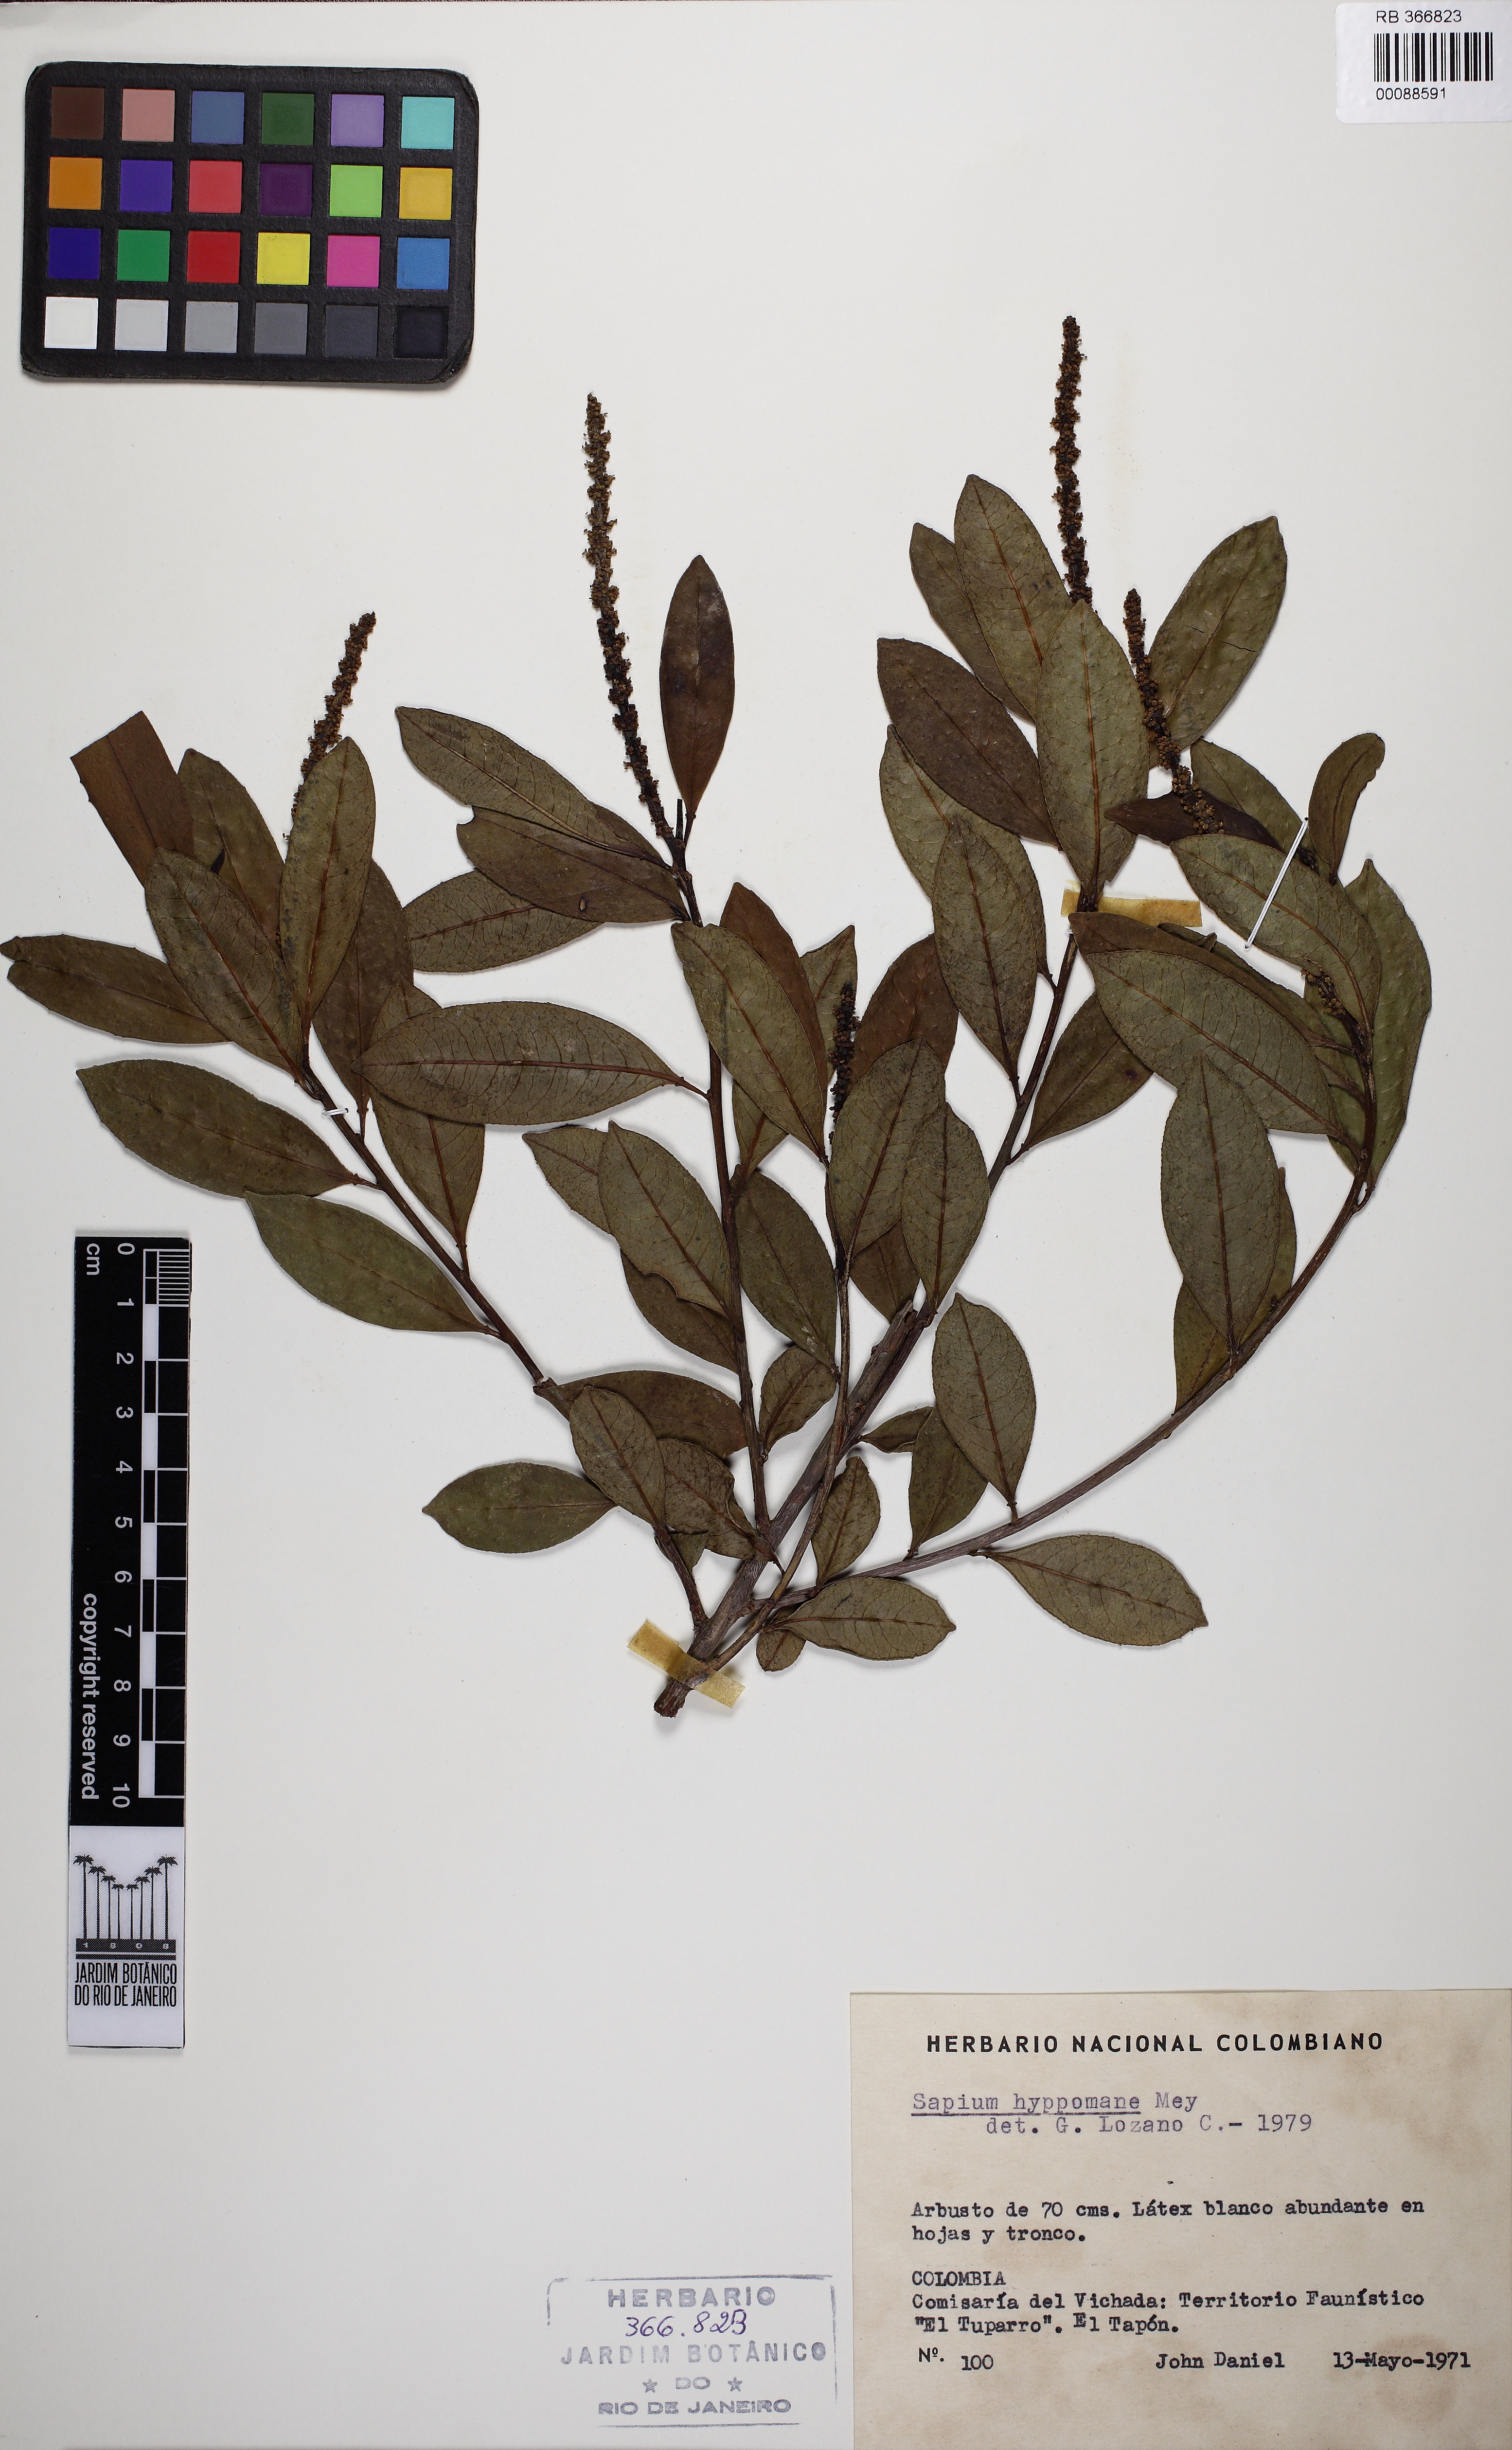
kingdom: Plantae
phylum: Tracheophyta
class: Magnoliopsida
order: Malpighiales
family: Euphorbiaceae
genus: Sapium
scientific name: Sapium glandulosum
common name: Milktree
